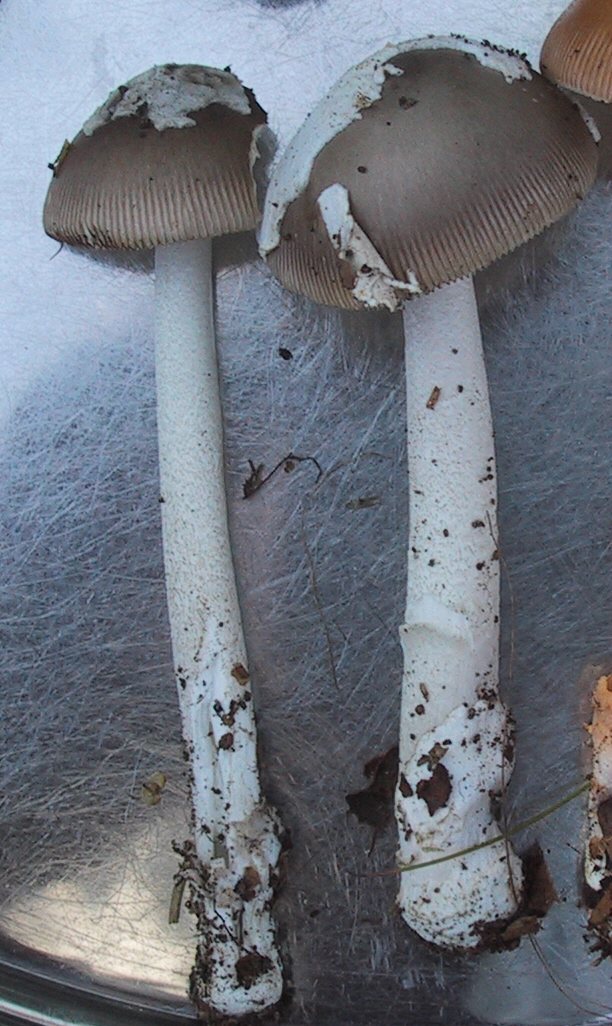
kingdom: Fungi
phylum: Basidiomycota
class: Agaricomycetes
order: Agaricales
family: Amanitaceae
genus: Amanita
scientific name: Amanita submembranacea
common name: gråspættet kam-fluesvamp
